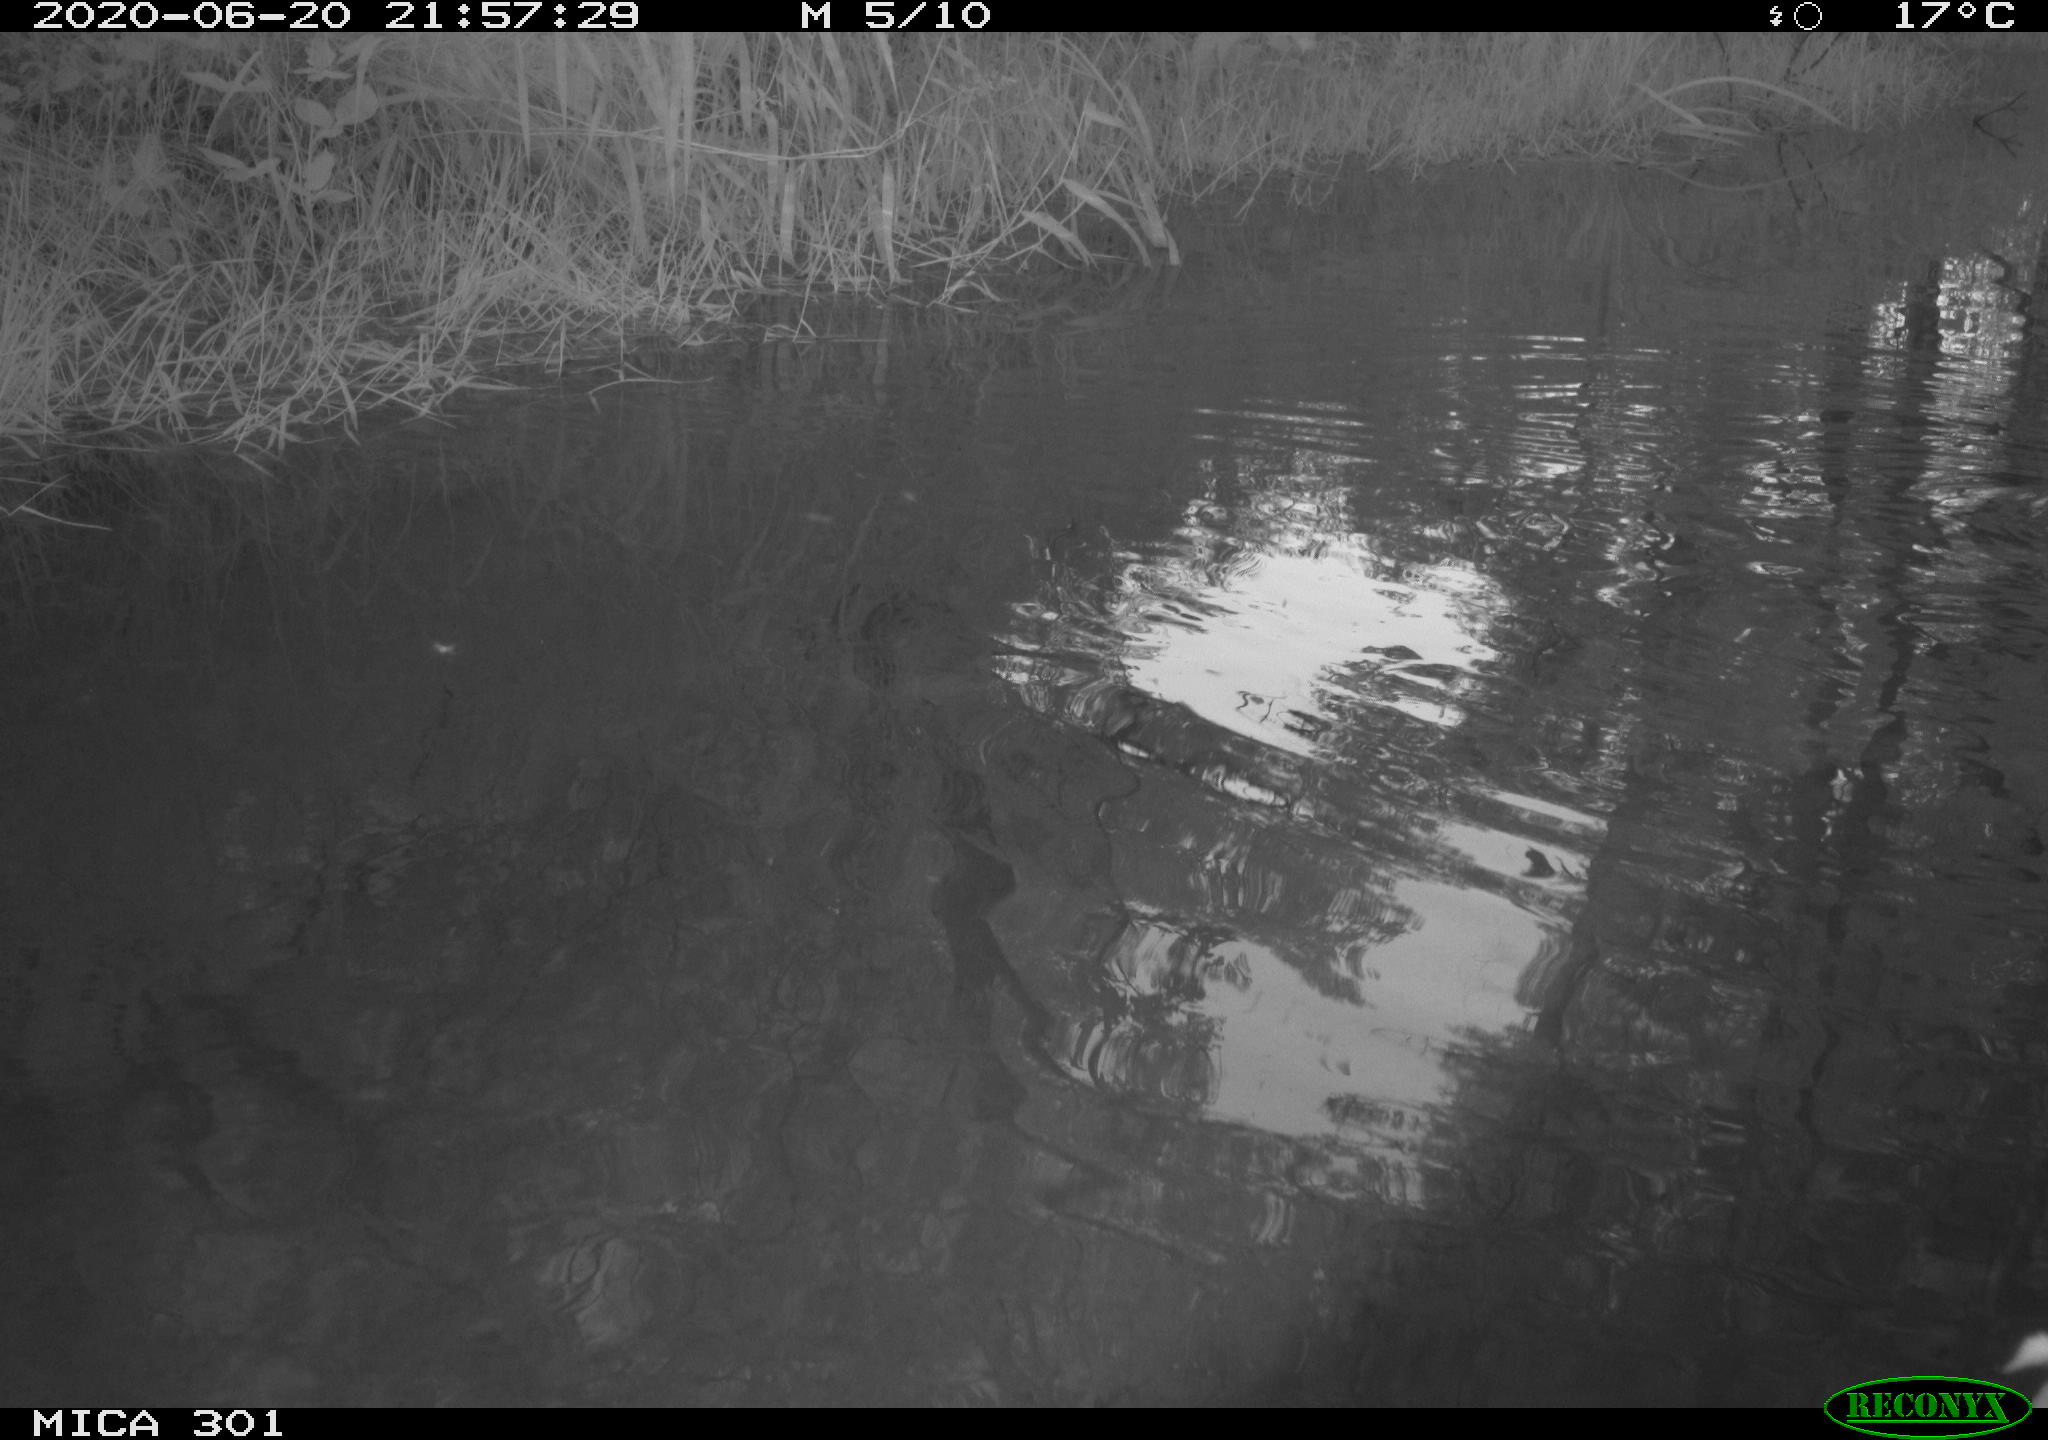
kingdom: Animalia
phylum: Chordata
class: Aves
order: Anseriformes
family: Anatidae
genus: Aix
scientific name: Aix galericulata
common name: Mandarin duck
